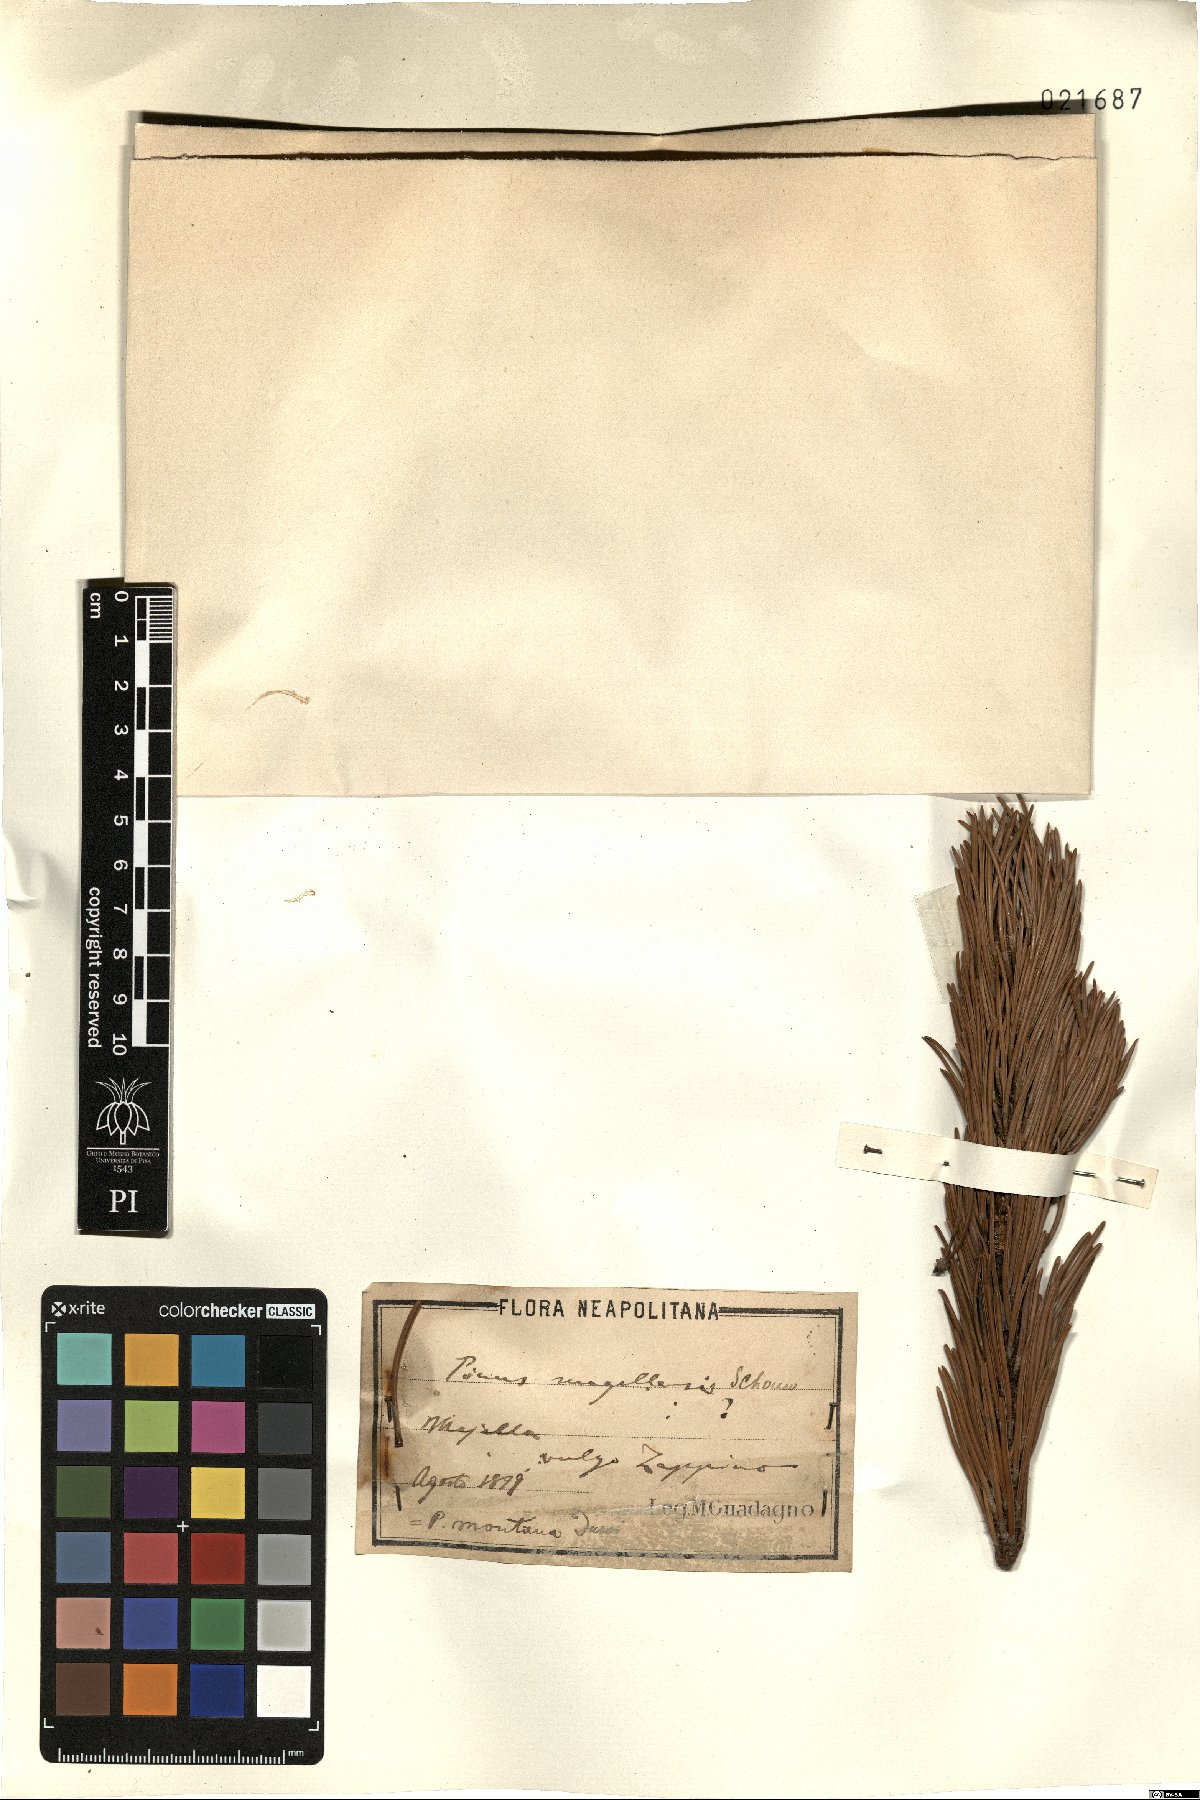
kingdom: Plantae
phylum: Tracheophyta
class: Pinopsida
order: Pinales
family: Pinaceae
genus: Pinus
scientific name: Pinus mugo
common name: Mugo pine
